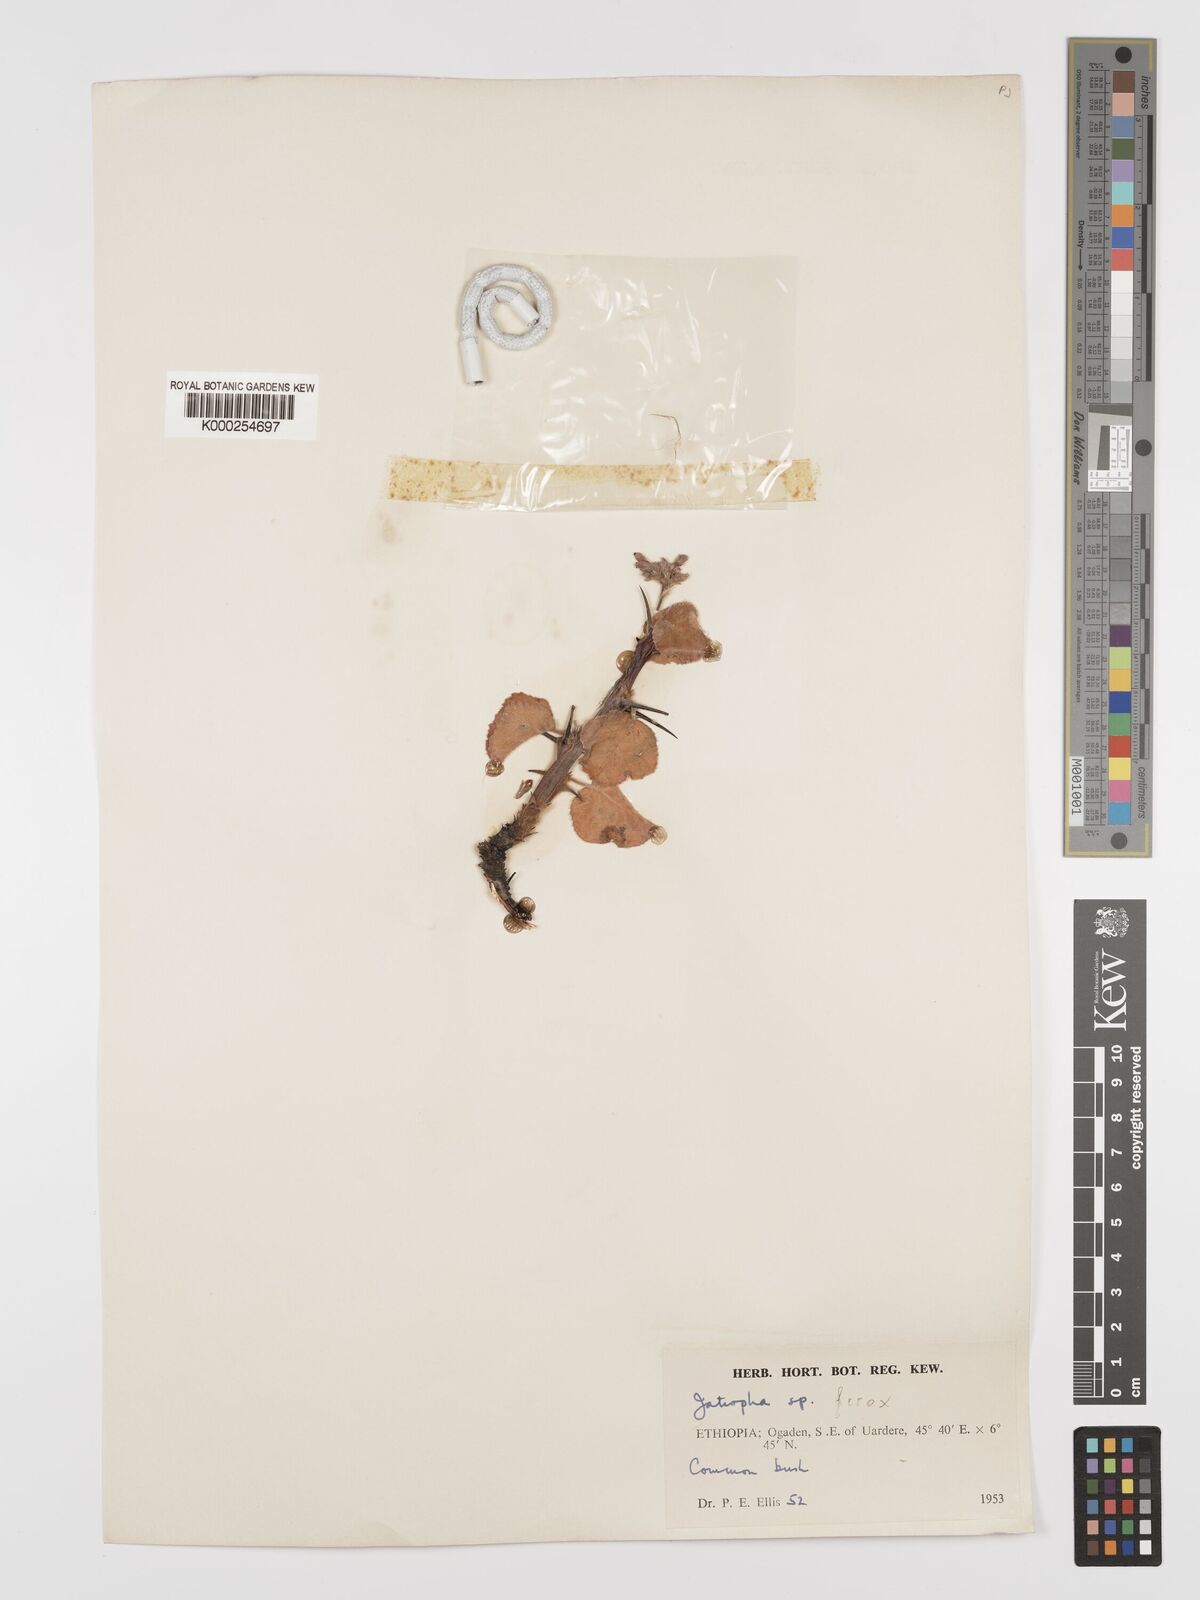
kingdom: Plantae
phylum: Tracheophyta
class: Magnoliopsida
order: Malpighiales
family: Euphorbiaceae
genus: Jatropha
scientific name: Jatropha dichtar
